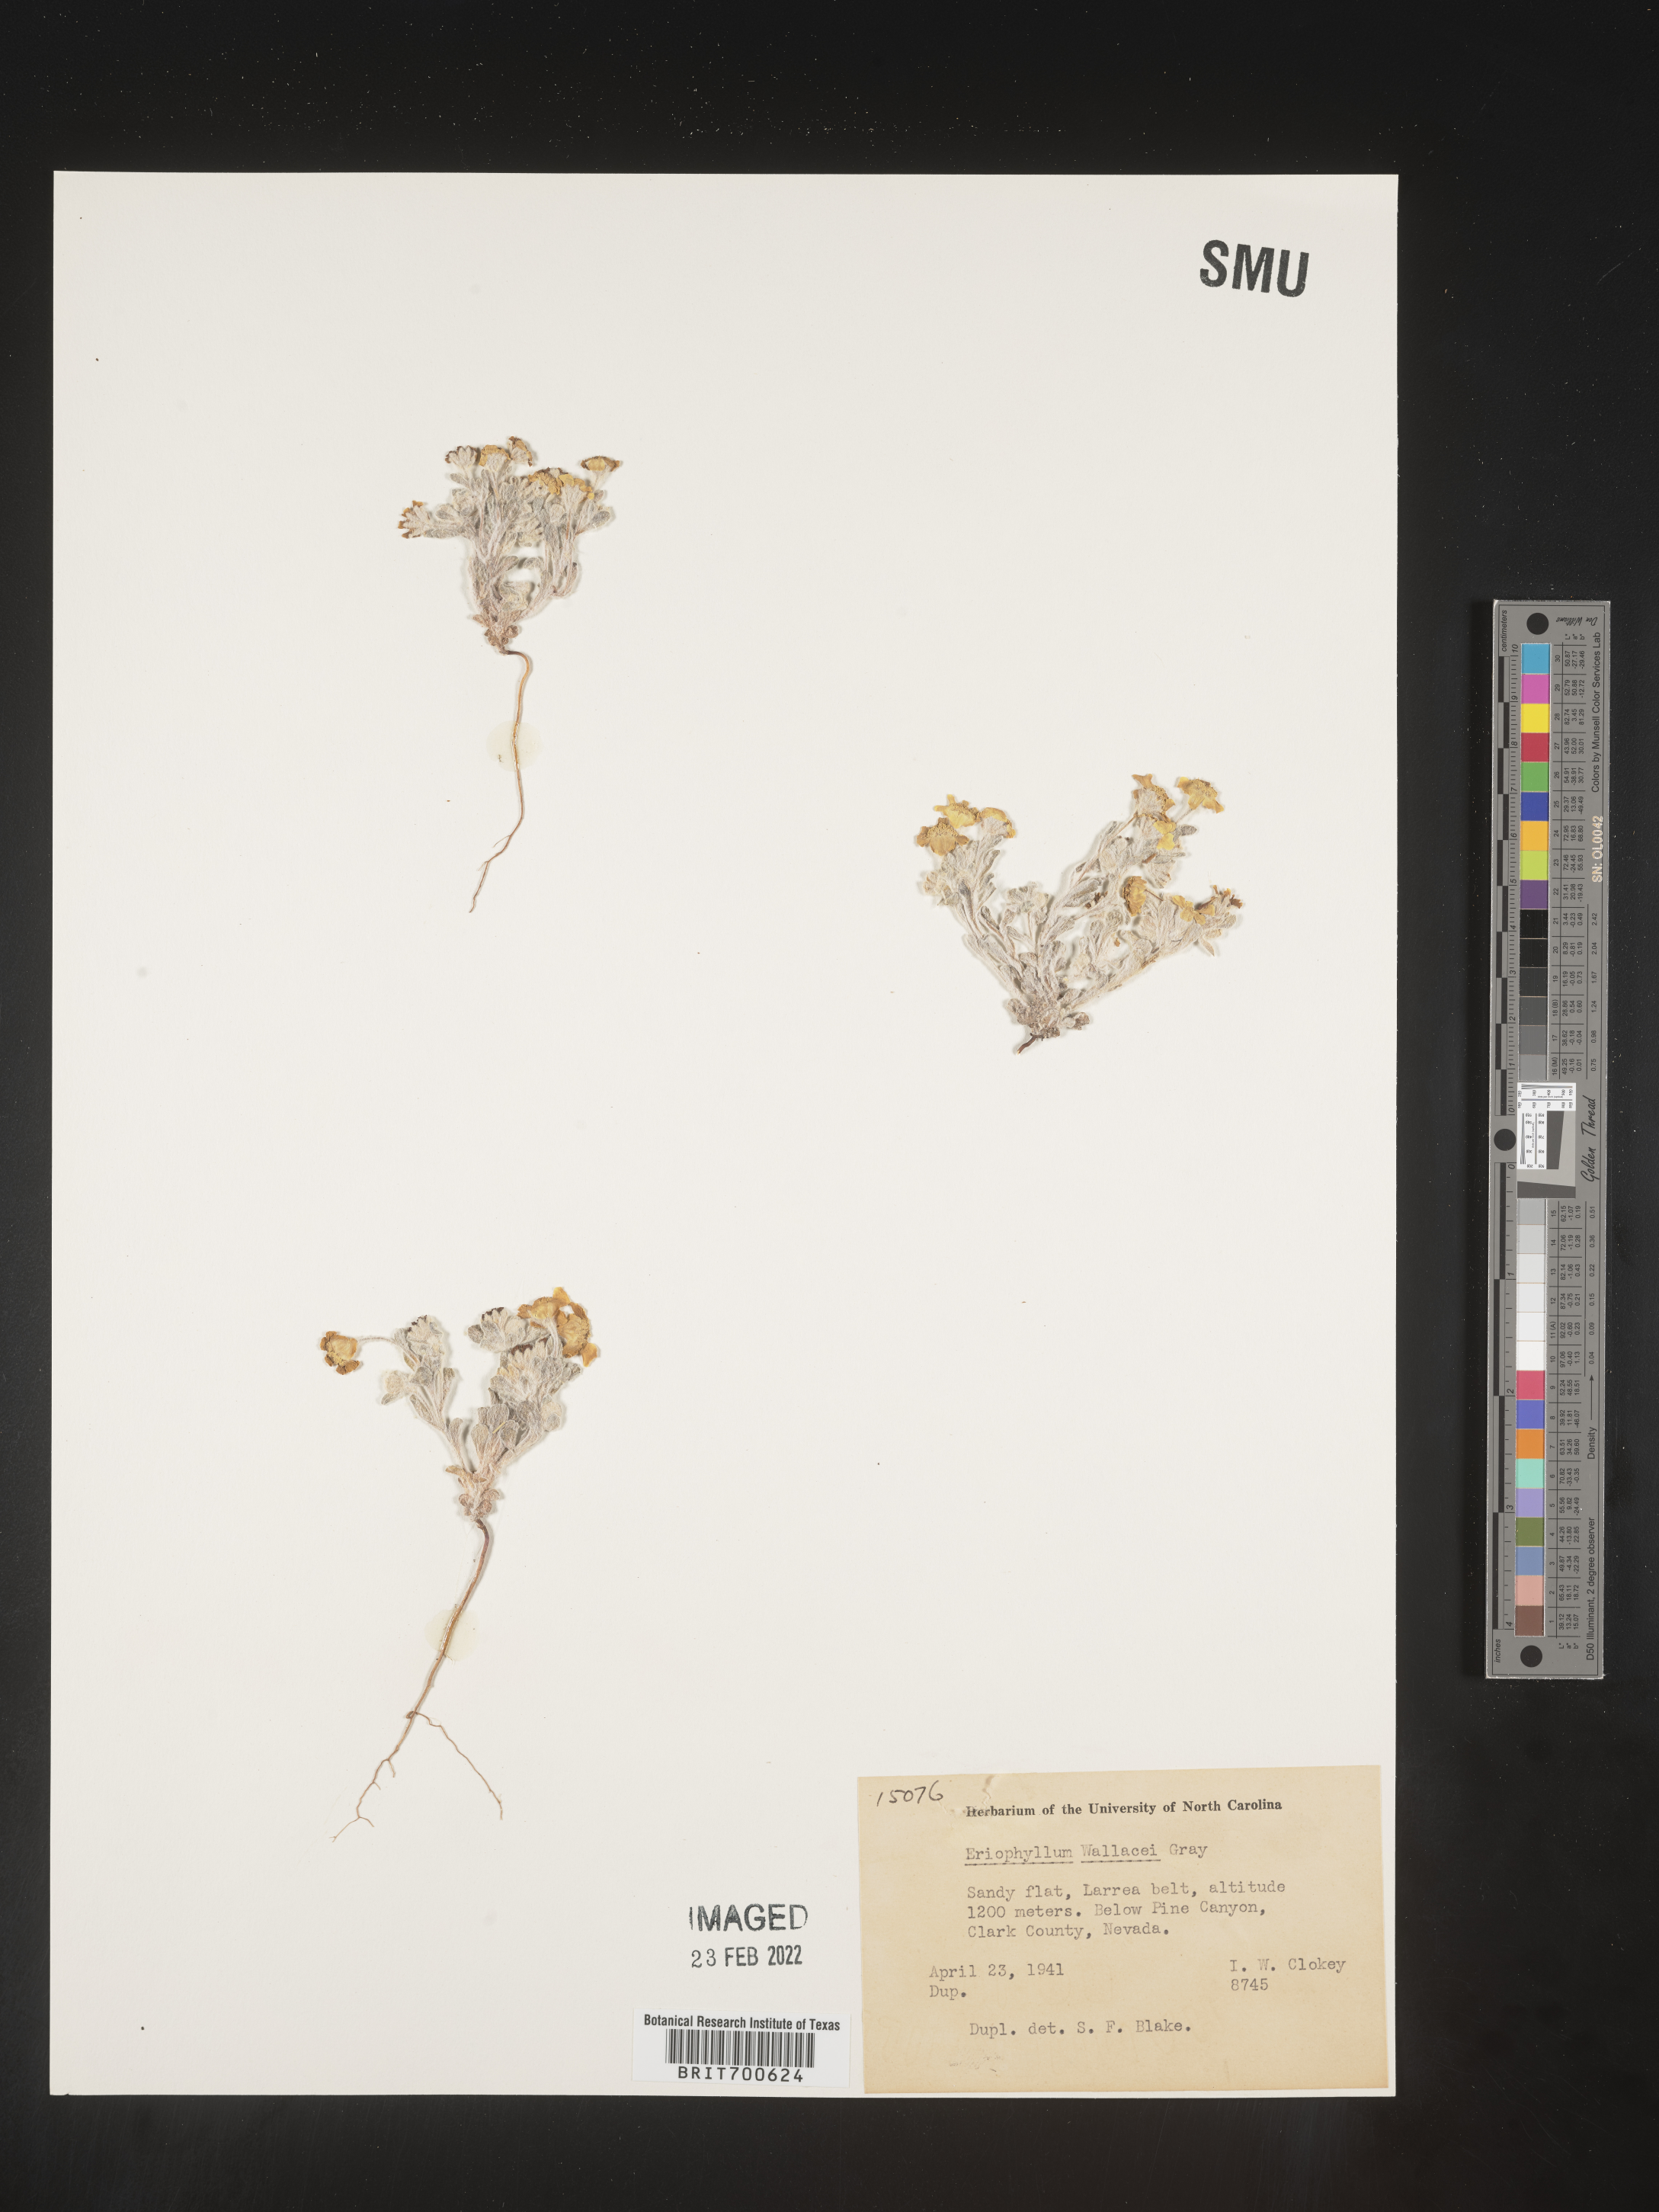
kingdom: Plantae
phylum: Tracheophyta
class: Magnoliopsida
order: Asterales
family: Asteraceae
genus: Eriophyllum
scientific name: Eriophyllum wallacei
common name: Wallace's woolly daisy
